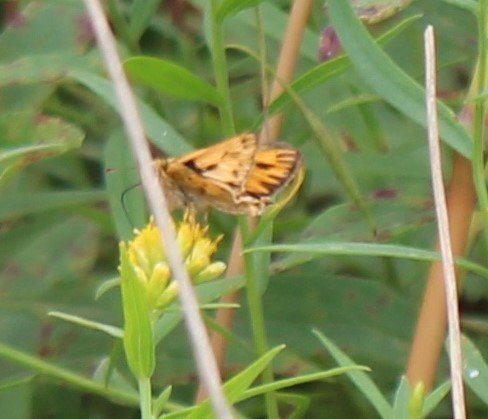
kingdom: Animalia
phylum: Arthropoda
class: Insecta
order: Lepidoptera
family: Hesperiidae
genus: Hylephila
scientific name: Hylephila phyleus
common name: Fiery Skipper
